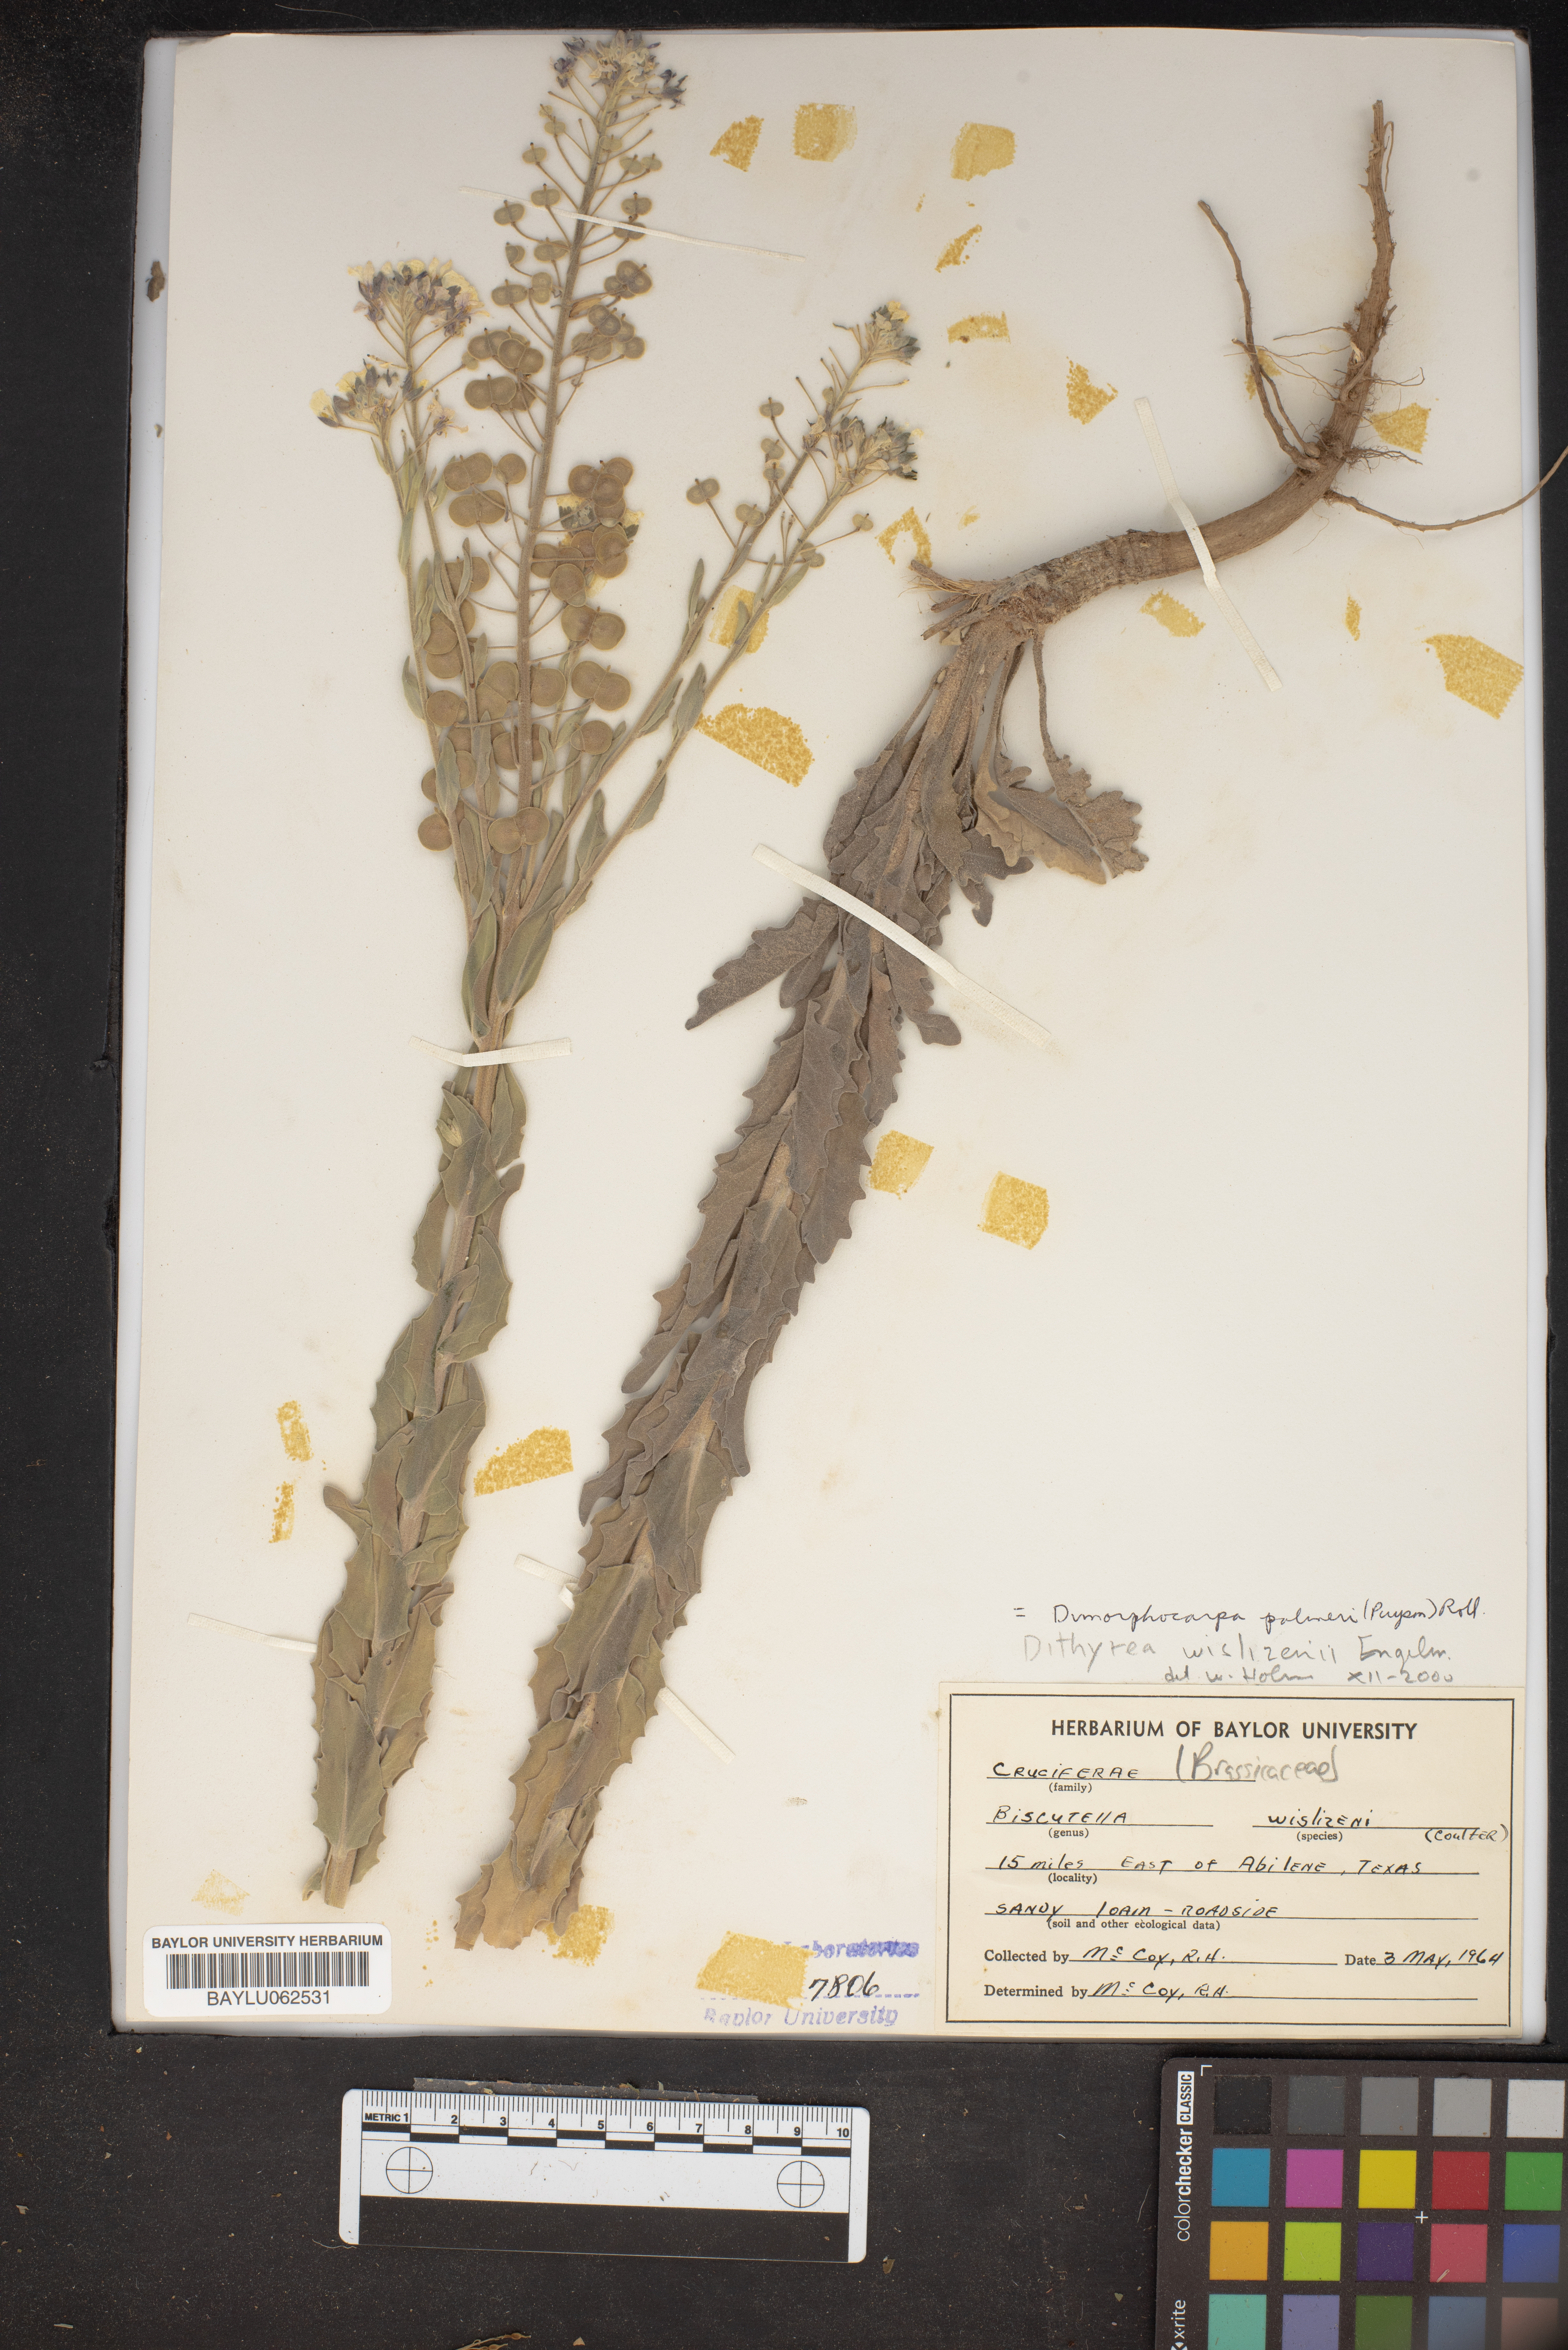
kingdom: Plantae
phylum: Tracheophyta
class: Magnoliopsida
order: Brassicales
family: Brassicaceae
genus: Biscutella
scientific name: Biscutella wislizeni
